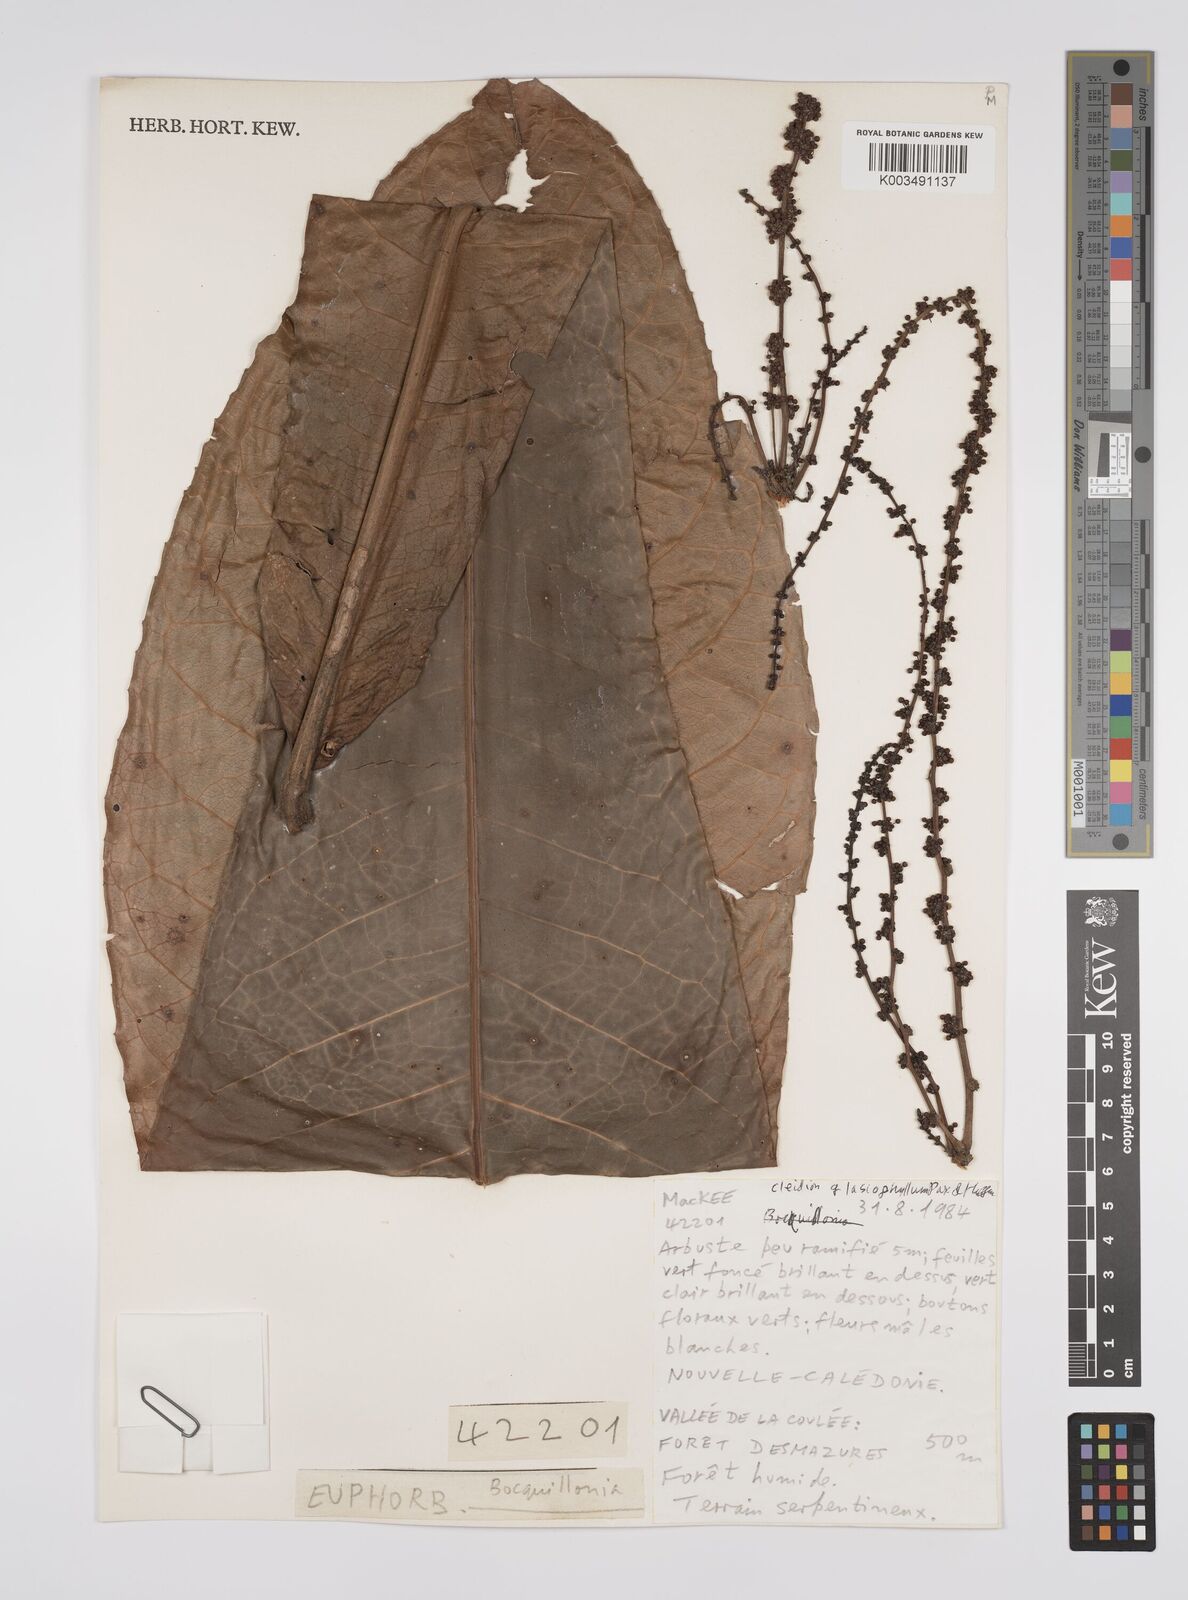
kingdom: Plantae
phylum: Tracheophyta
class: Magnoliopsida
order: Malpighiales
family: Euphorbiaceae
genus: Cleidion
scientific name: Cleidion lasiophyllum
